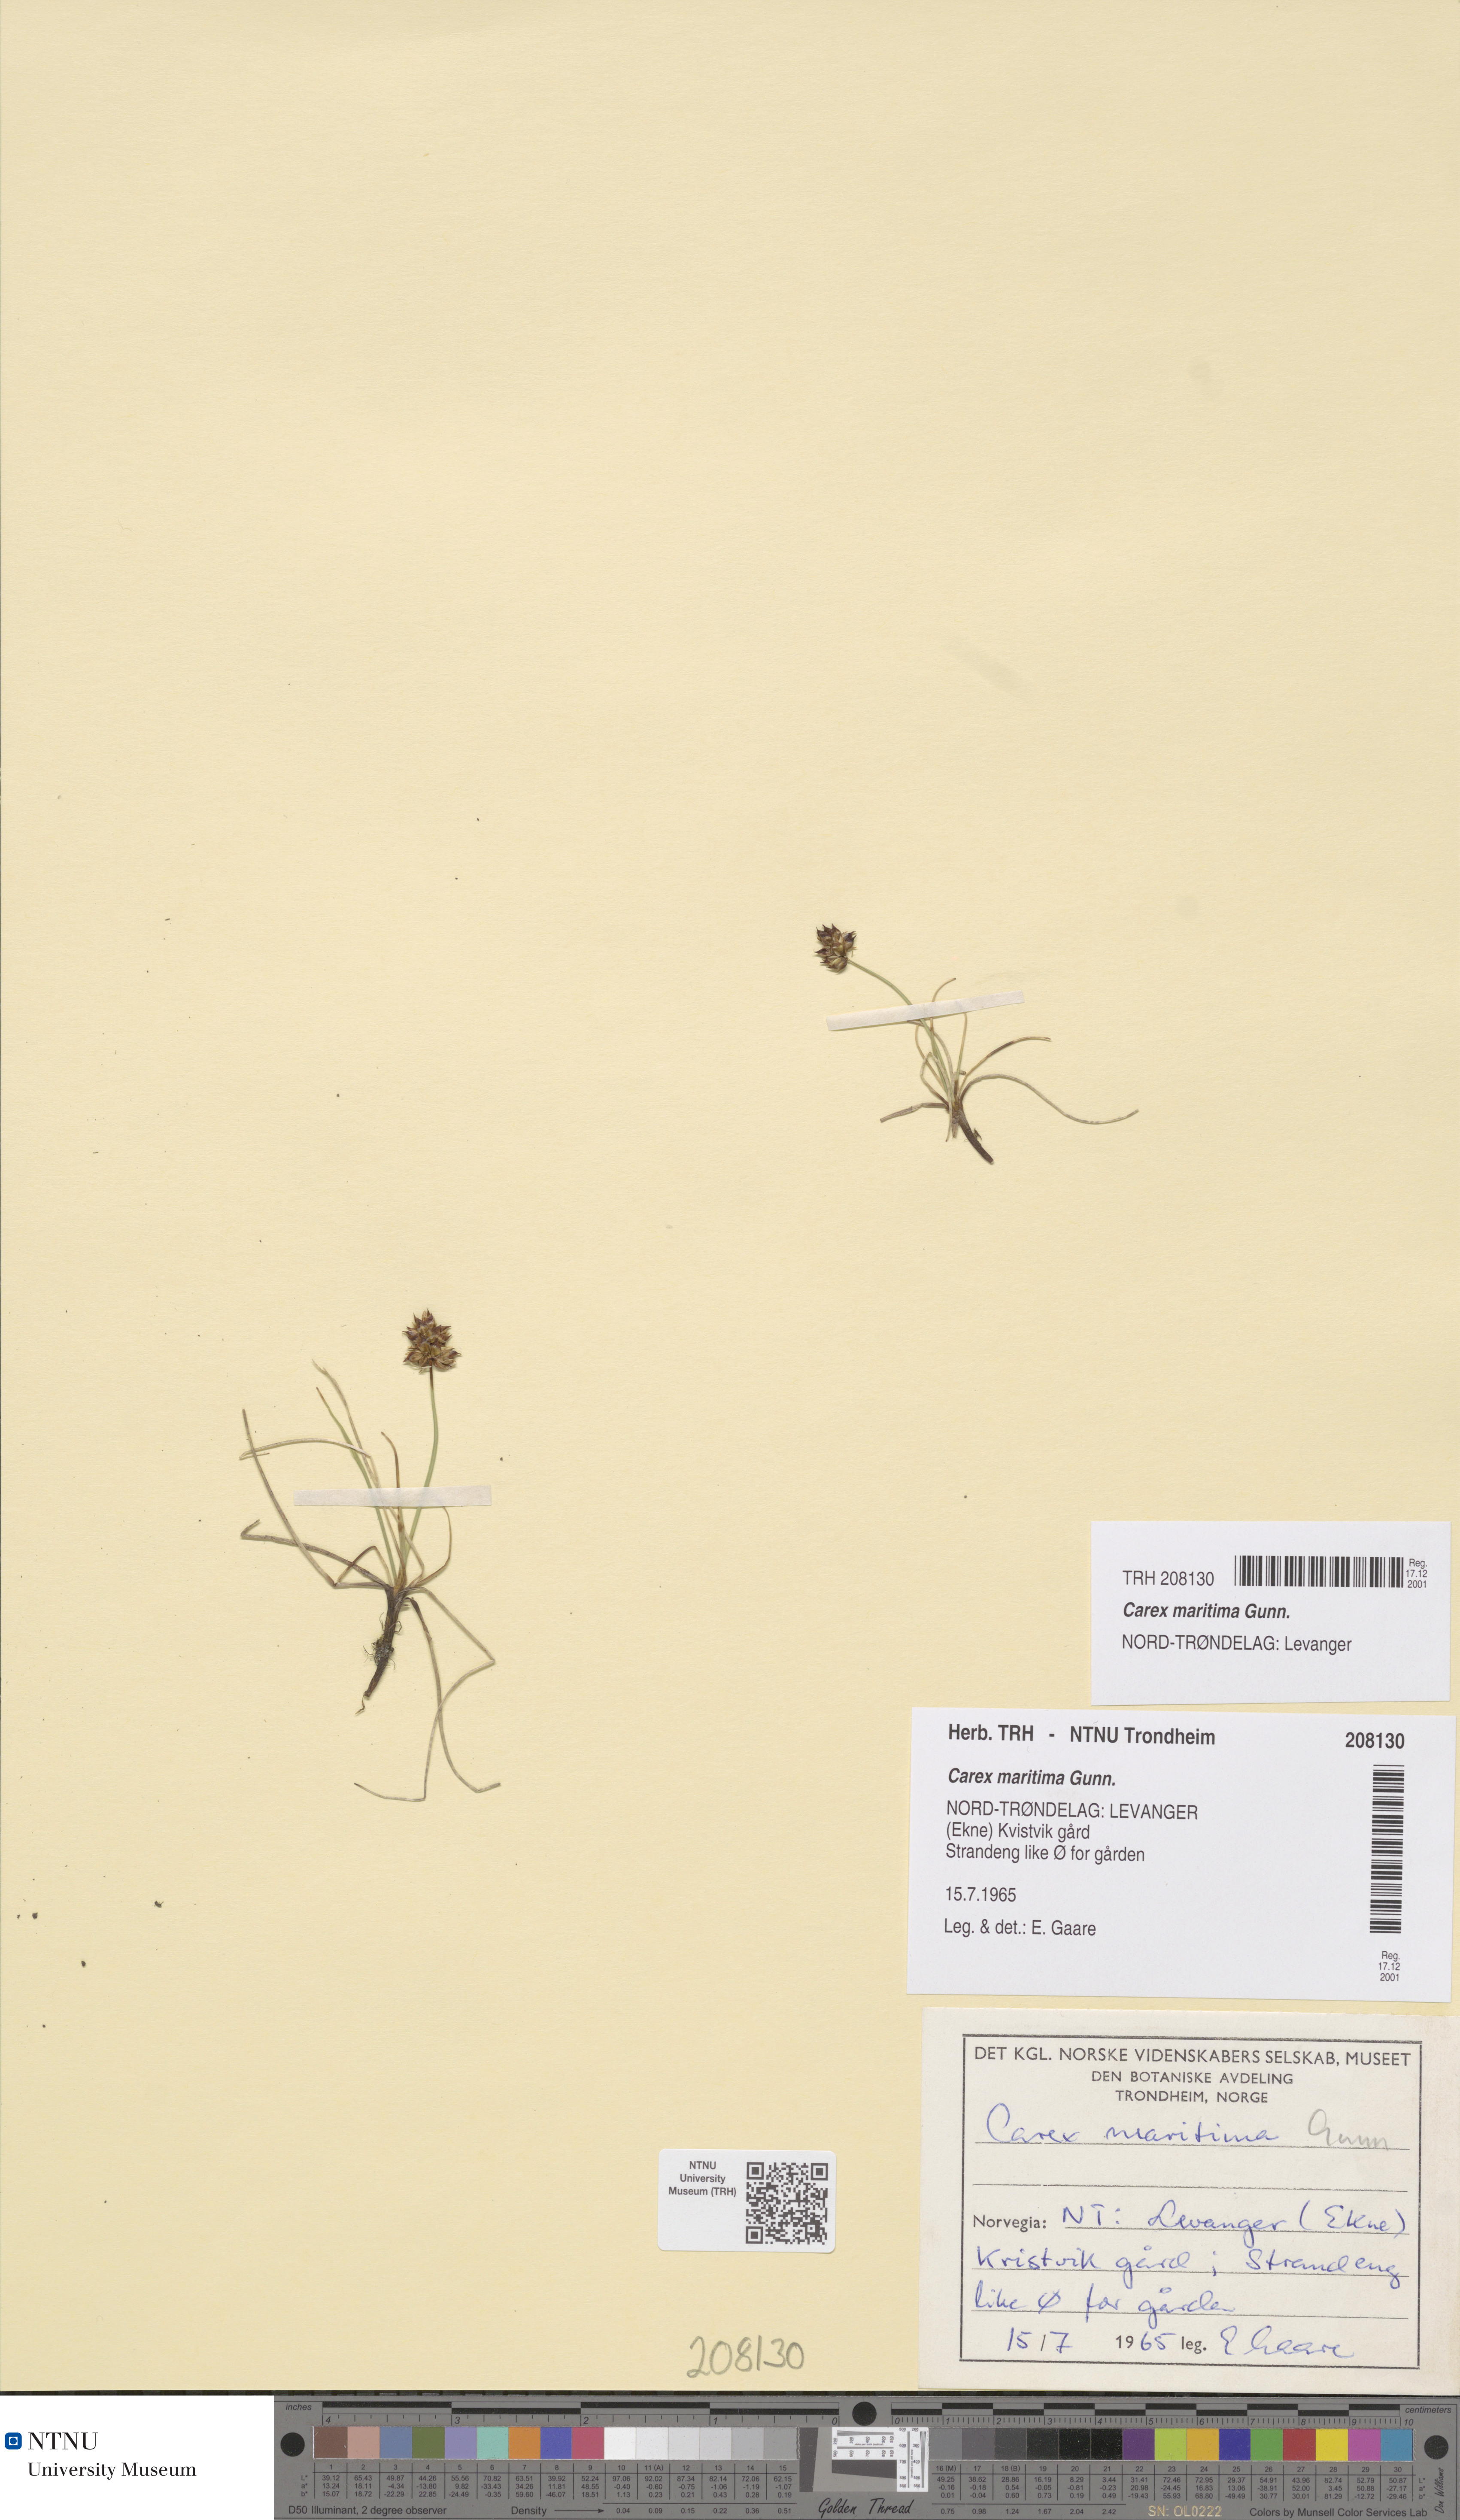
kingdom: Plantae
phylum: Tracheophyta
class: Liliopsida
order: Poales
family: Cyperaceae
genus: Carex
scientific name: Carex maritima
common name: Curved sedge
